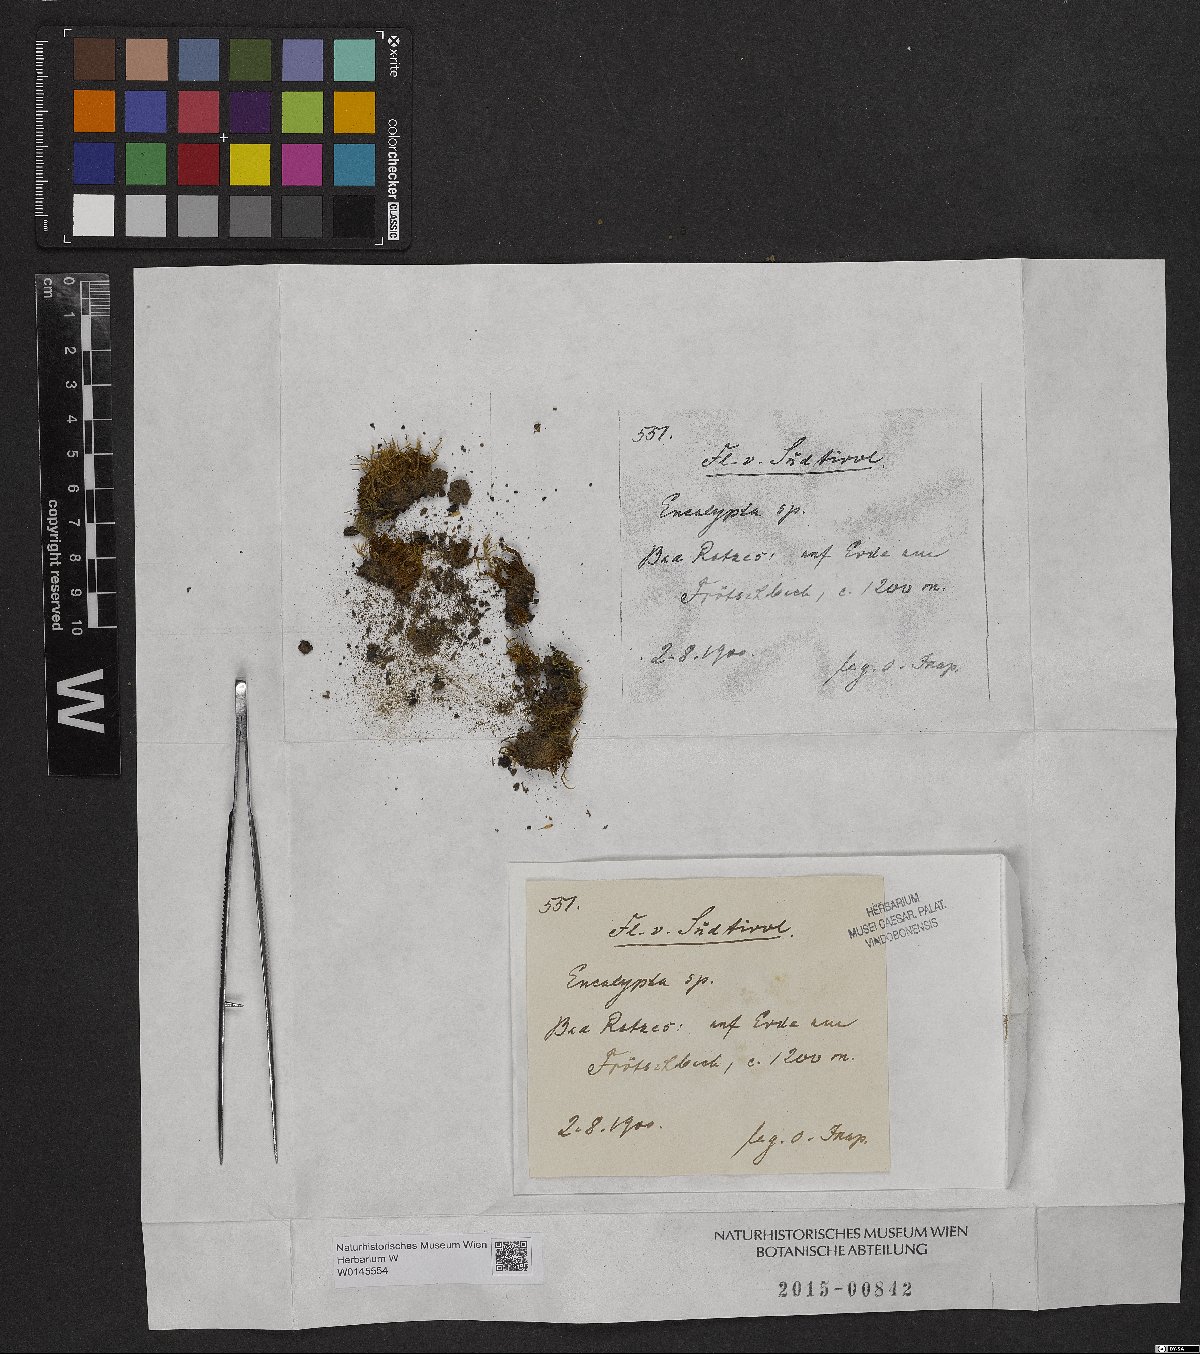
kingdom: Plantae
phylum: Bryophyta
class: Bryopsida
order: Encalyptales
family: Encalyptaceae
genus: Encalypta
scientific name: Encalypta
